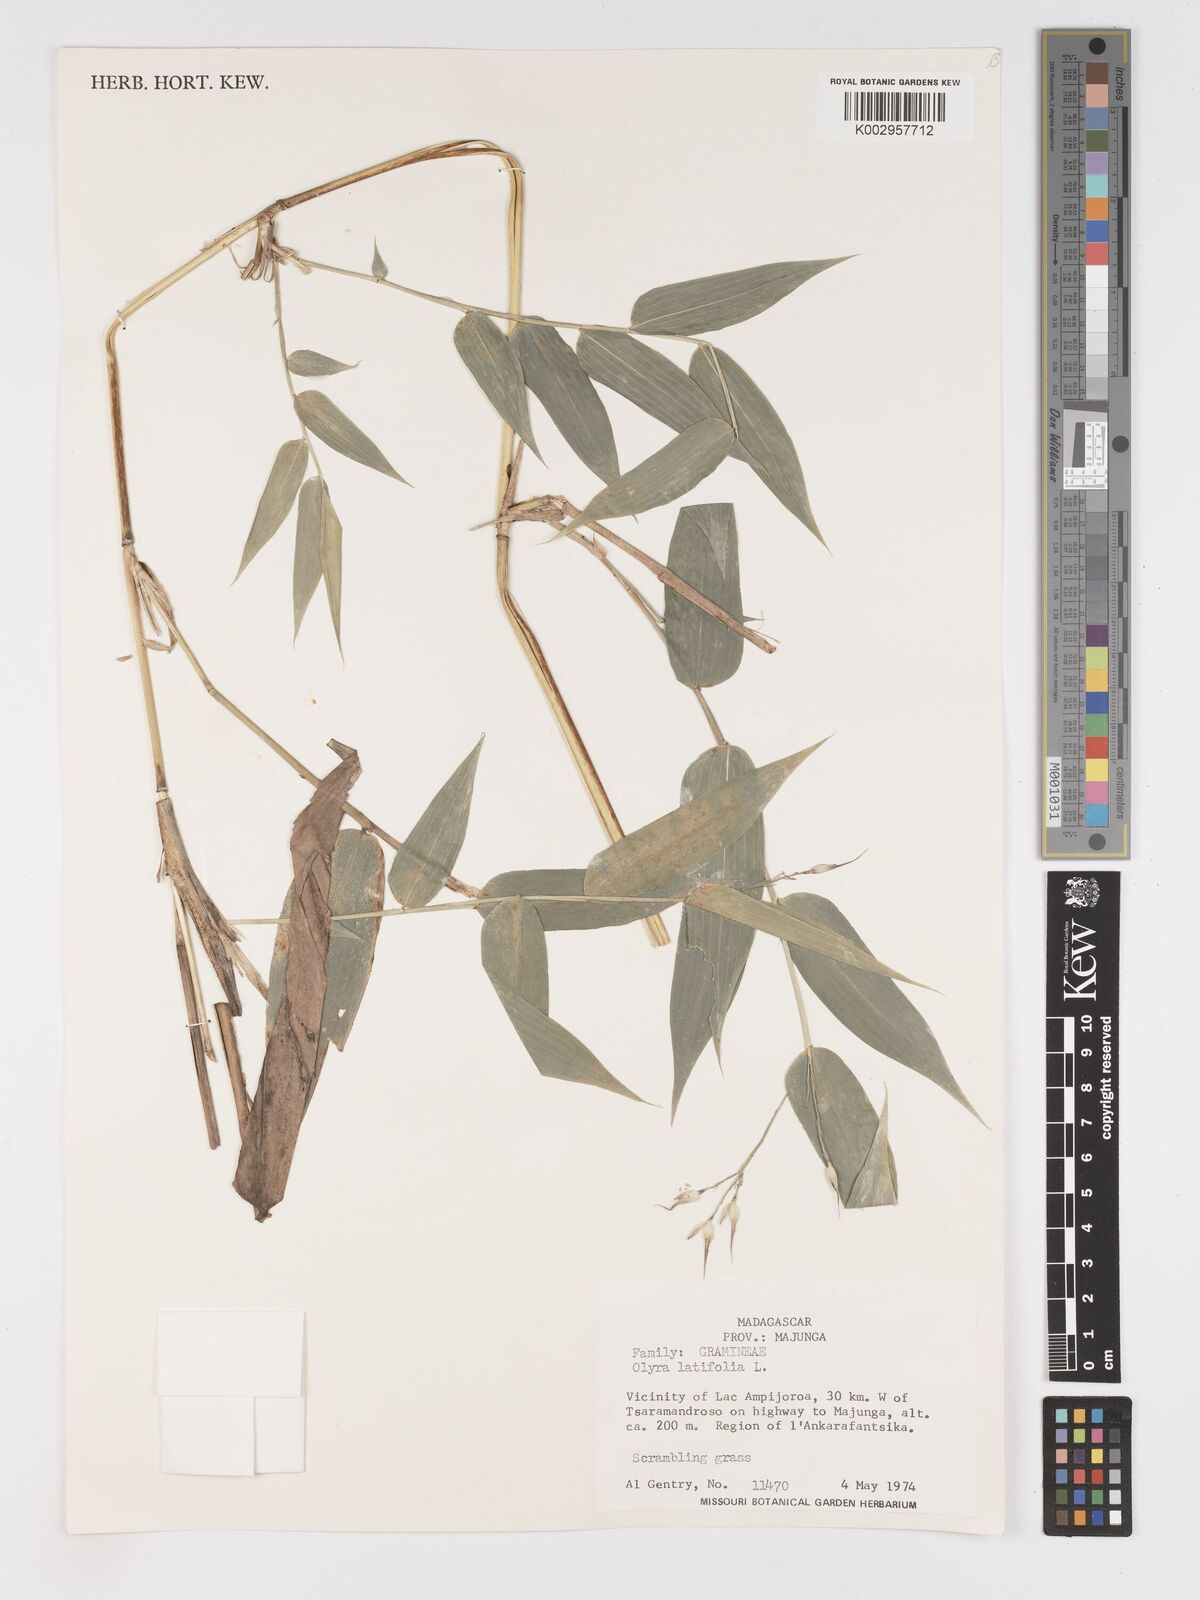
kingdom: Plantae
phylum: Tracheophyta
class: Liliopsida
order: Poales
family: Poaceae
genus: Olyra
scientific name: Olyra latifolia
